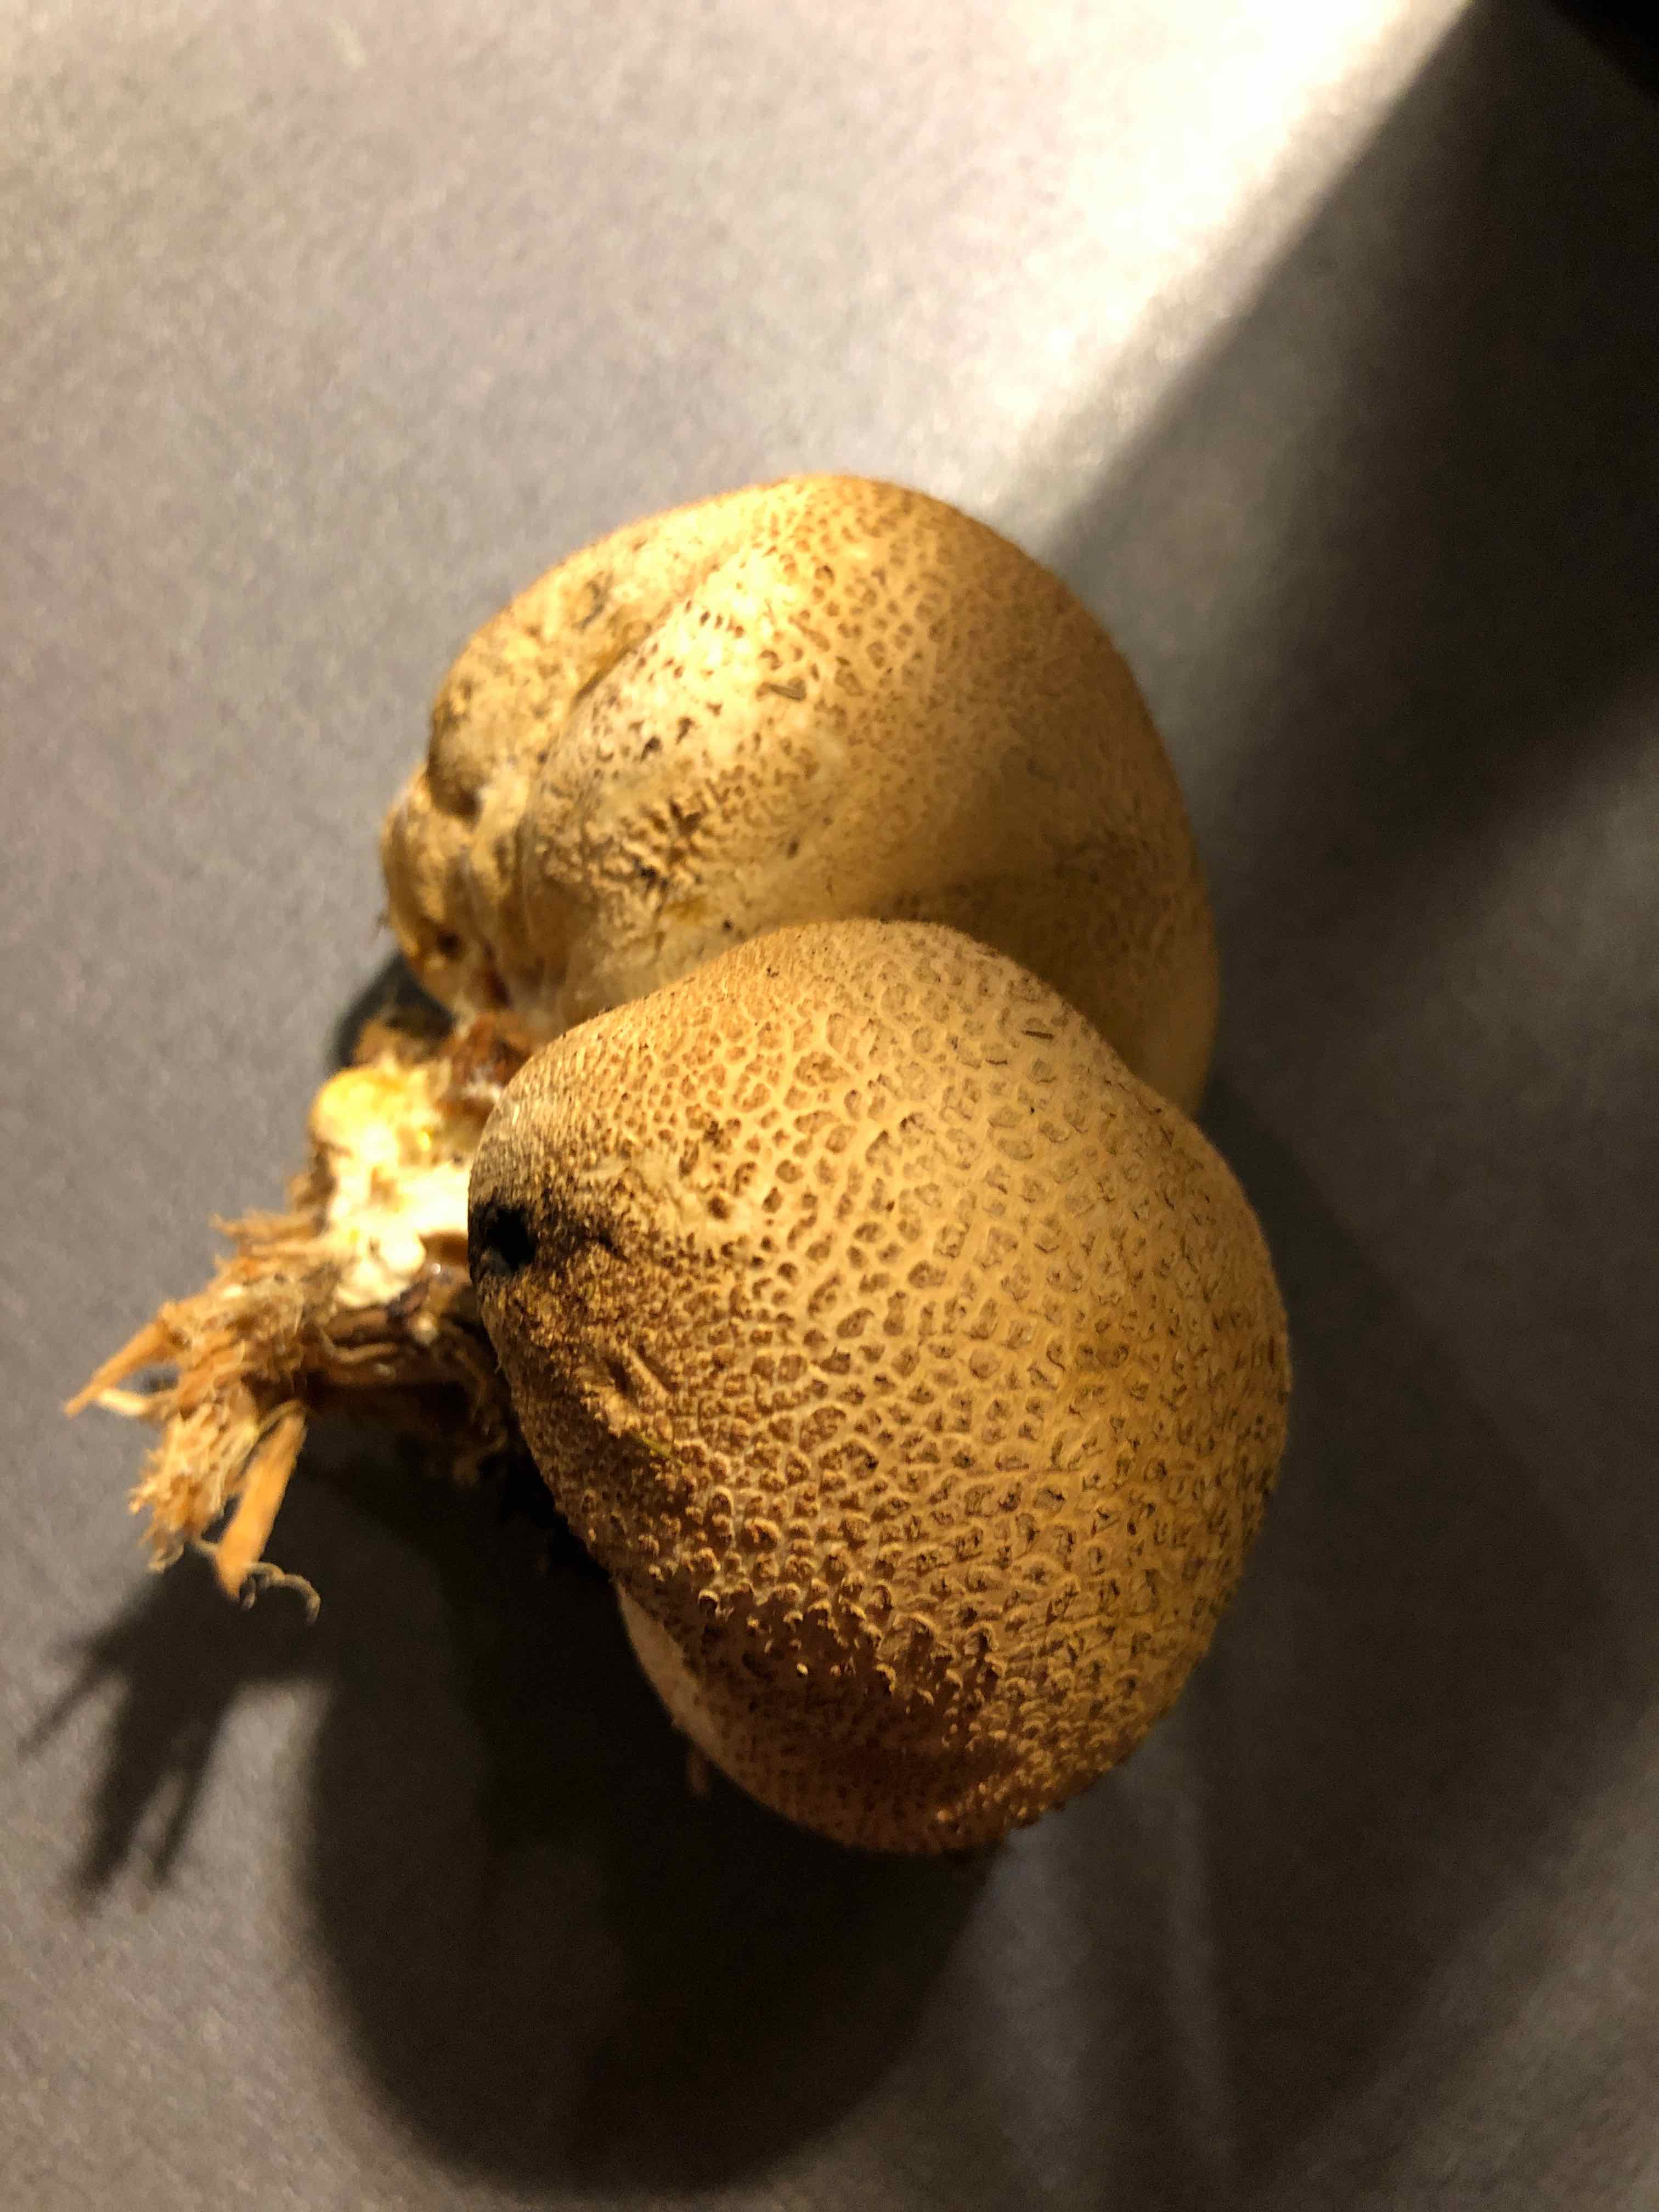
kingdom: Fungi
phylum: Basidiomycota
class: Agaricomycetes
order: Boletales
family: Sclerodermataceae
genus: Scleroderma
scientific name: Scleroderma citrinum
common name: almindelig bruskbold
